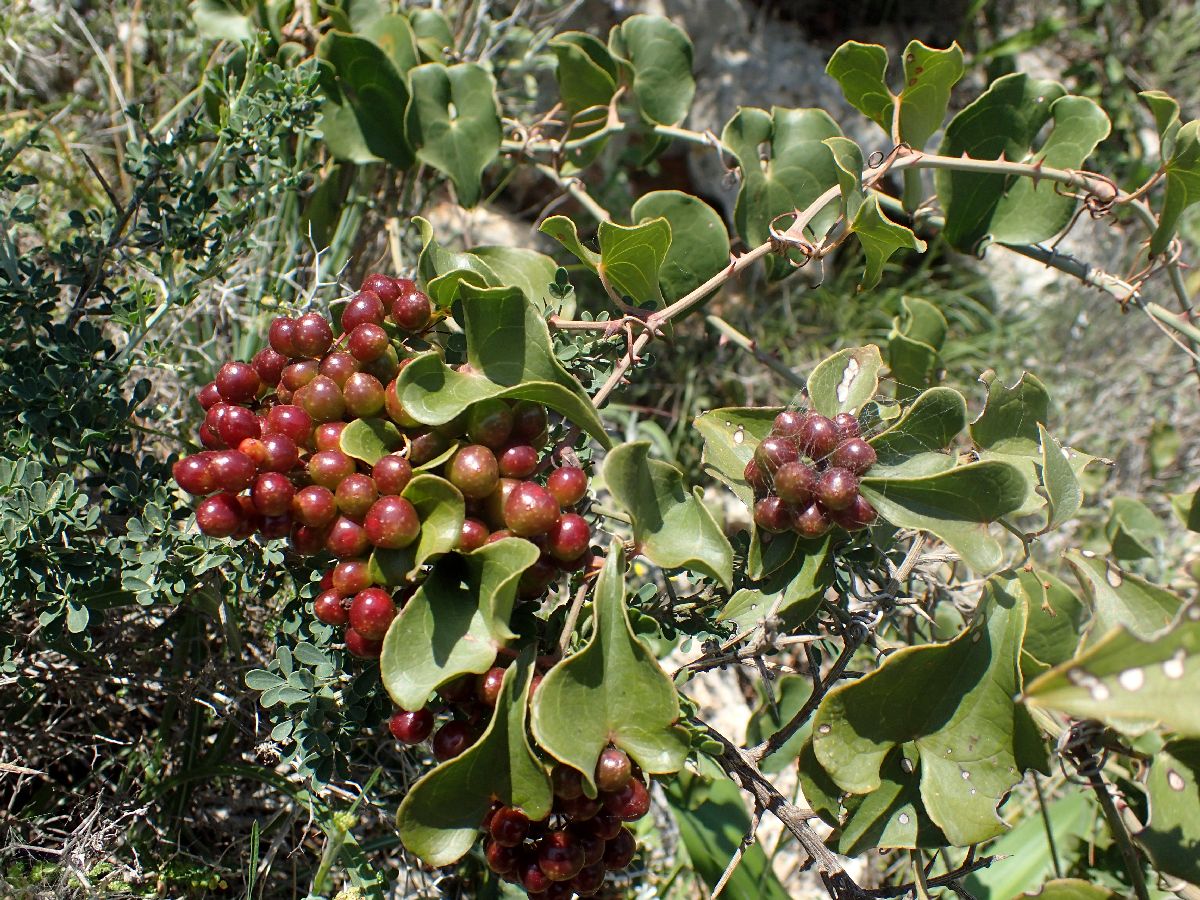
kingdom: Plantae
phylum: Tracheophyta
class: Liliopsida
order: Liliales
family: Smilacaceae
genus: Smilax
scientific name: Smilax aspera
